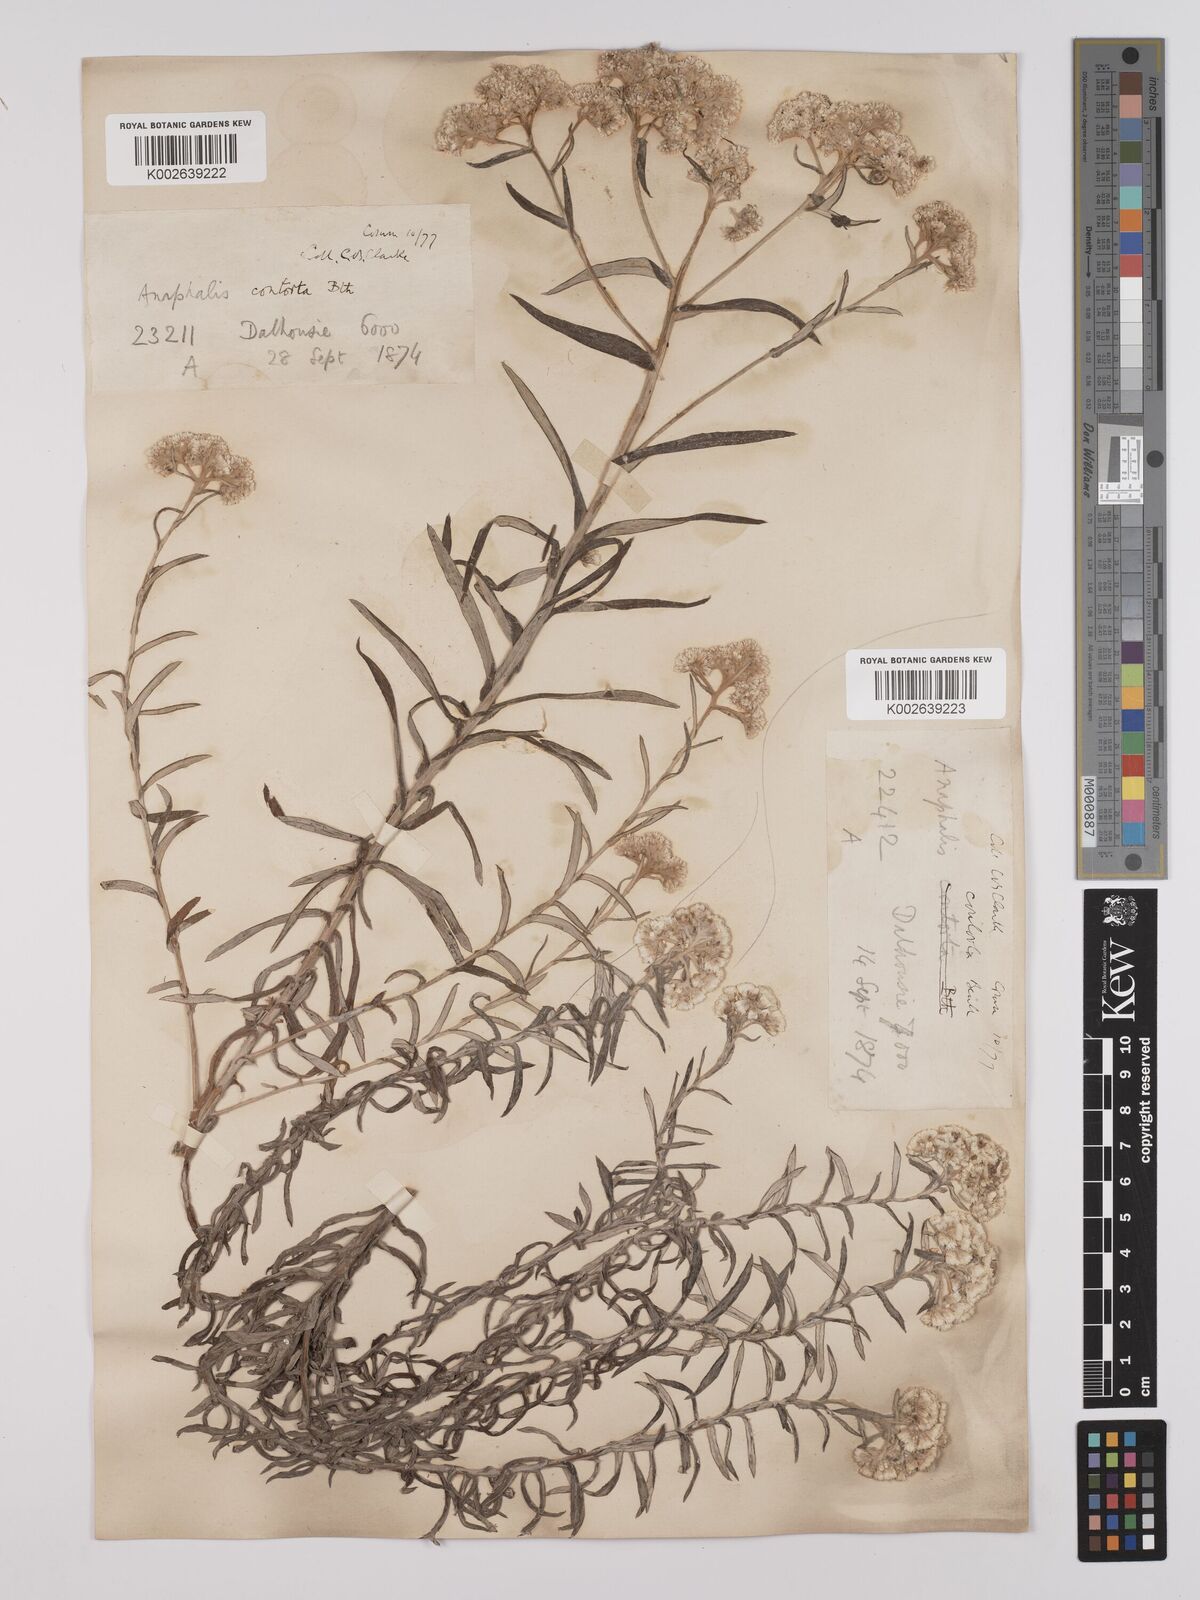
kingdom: Plantae
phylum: Tracheophyta
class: Magnoliopsida
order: Asterales
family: Asteraceae
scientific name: Asteraceae
